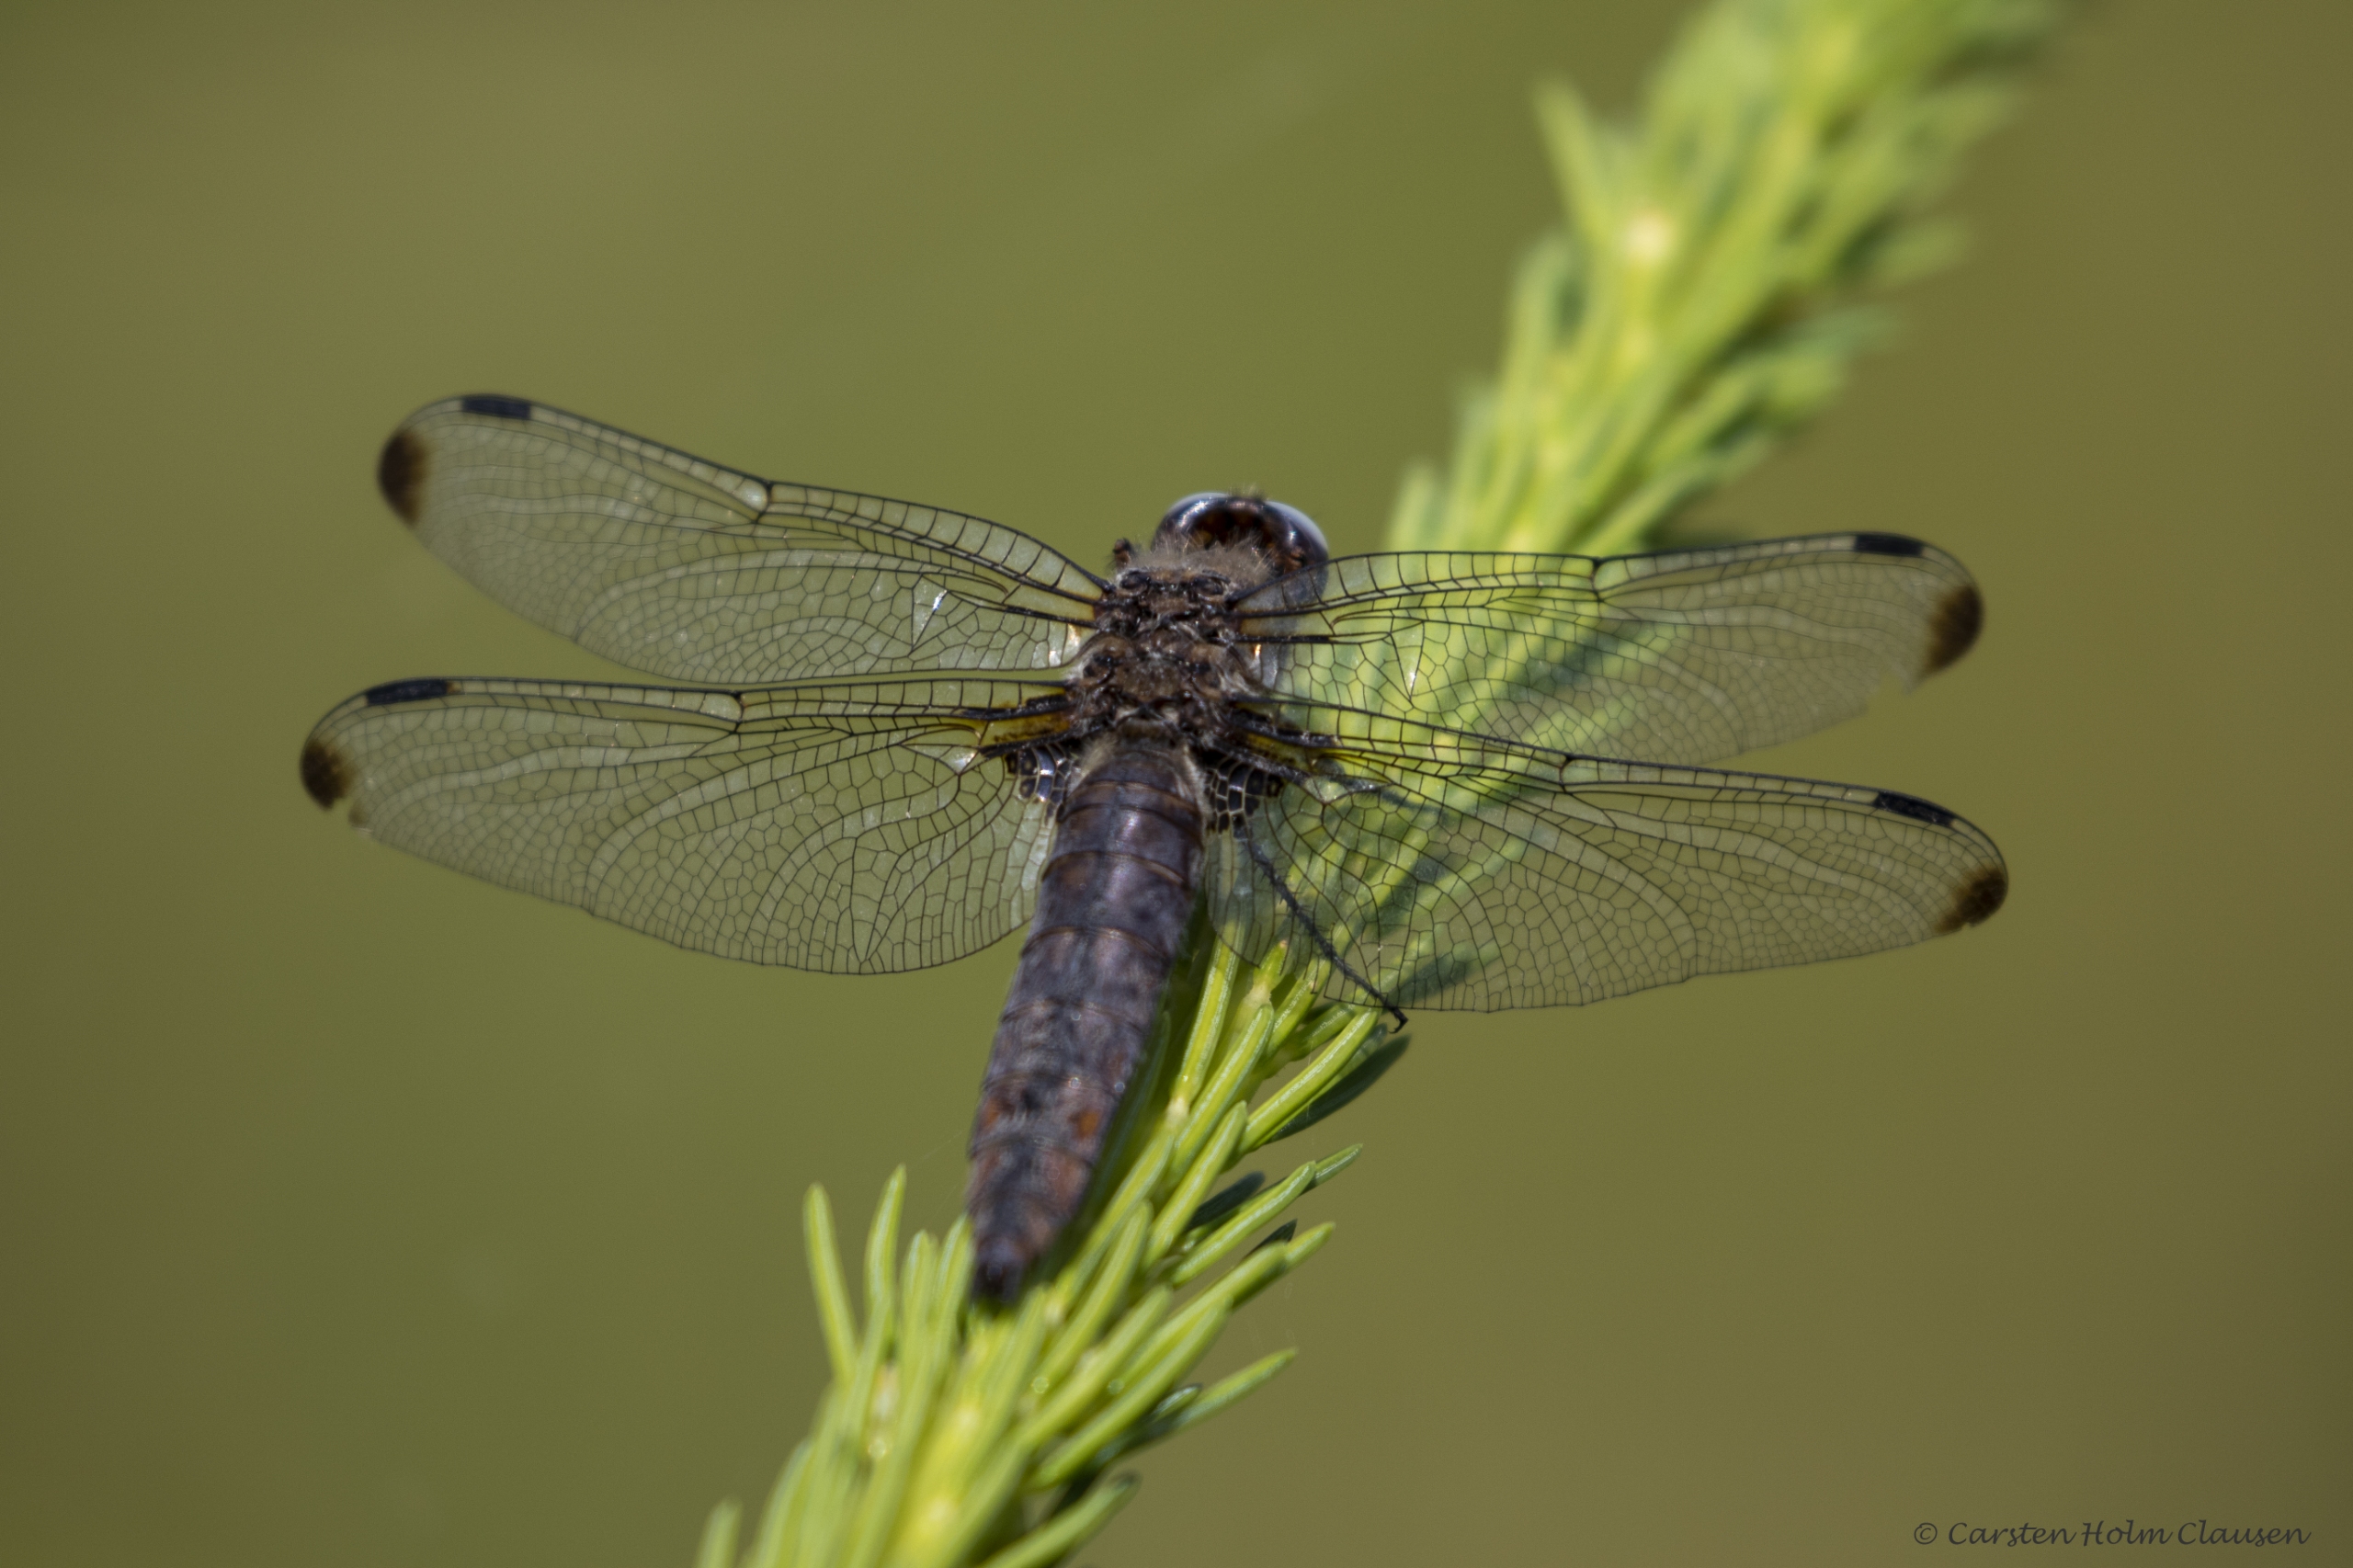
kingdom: Animalia
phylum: Arthropoda
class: Insecta
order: Odonata
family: Libellulidae
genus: Libellula
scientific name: Libellula fulva
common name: Spidsplettet libel
